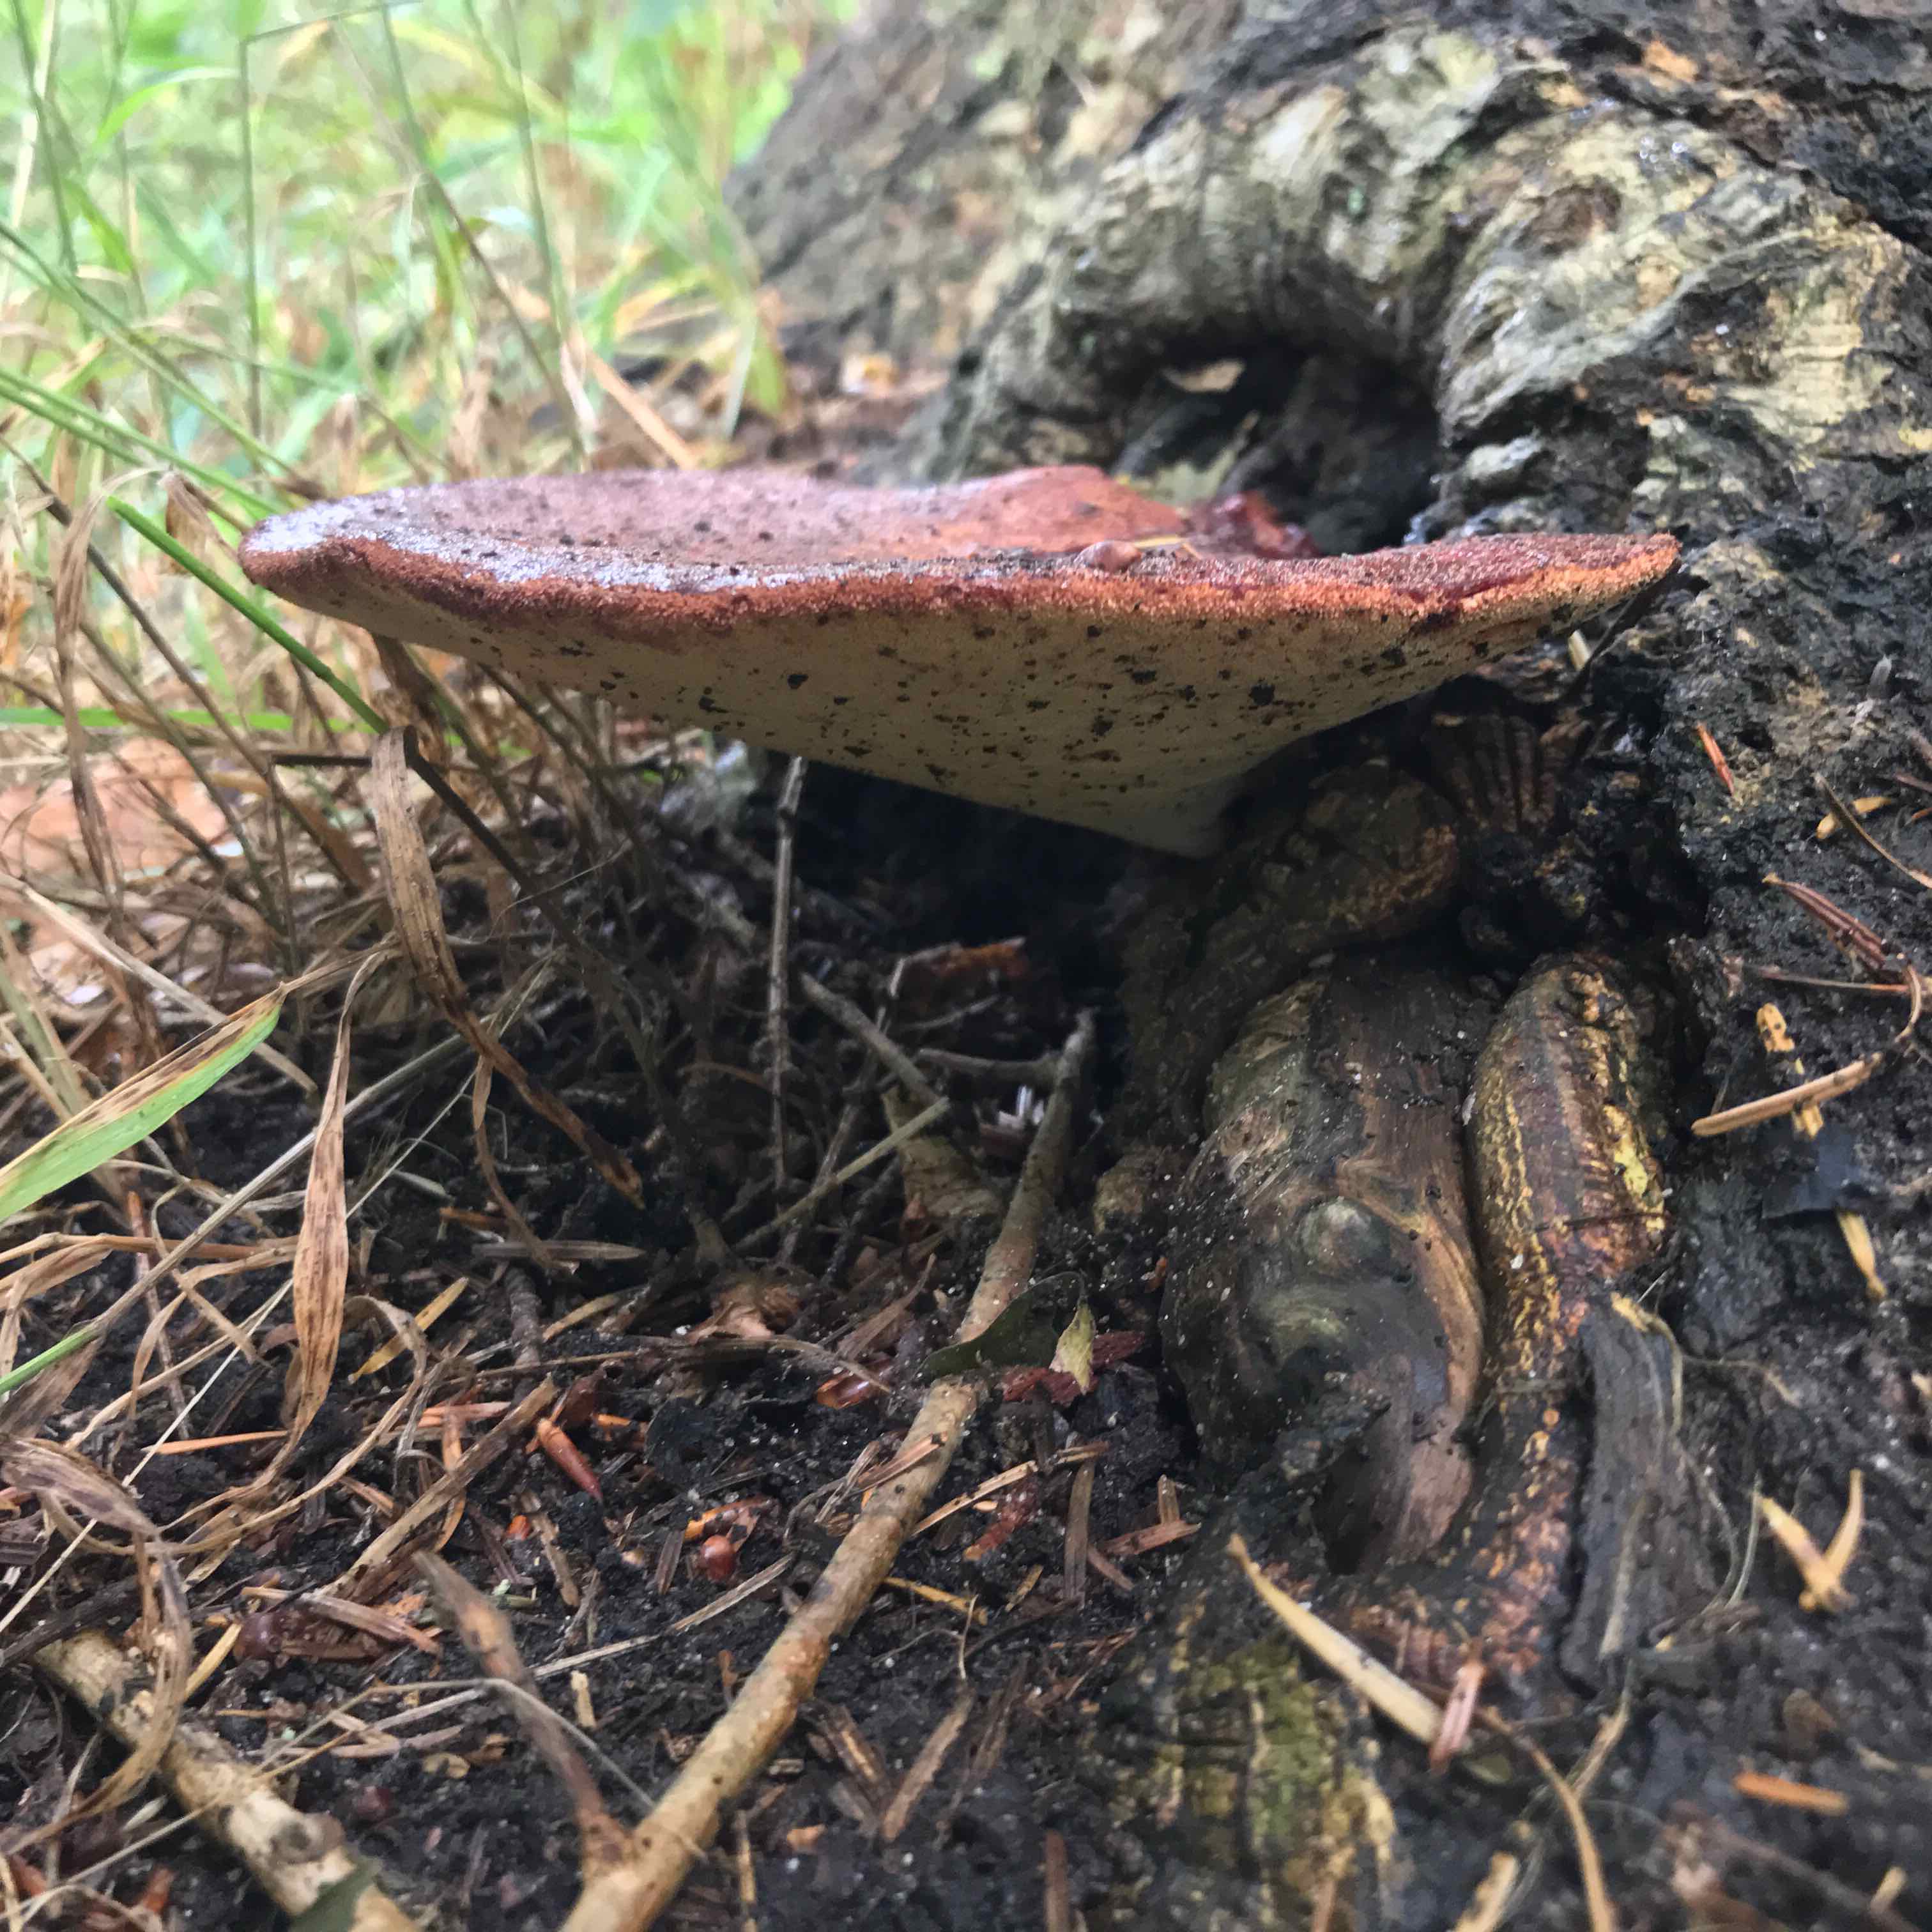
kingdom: Fungi
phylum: Basidiomycota
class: Agaricomycetes
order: Agaricales
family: Fistulinaceae
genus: Fistulina
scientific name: Fistulina hepatica
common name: oksetunge
